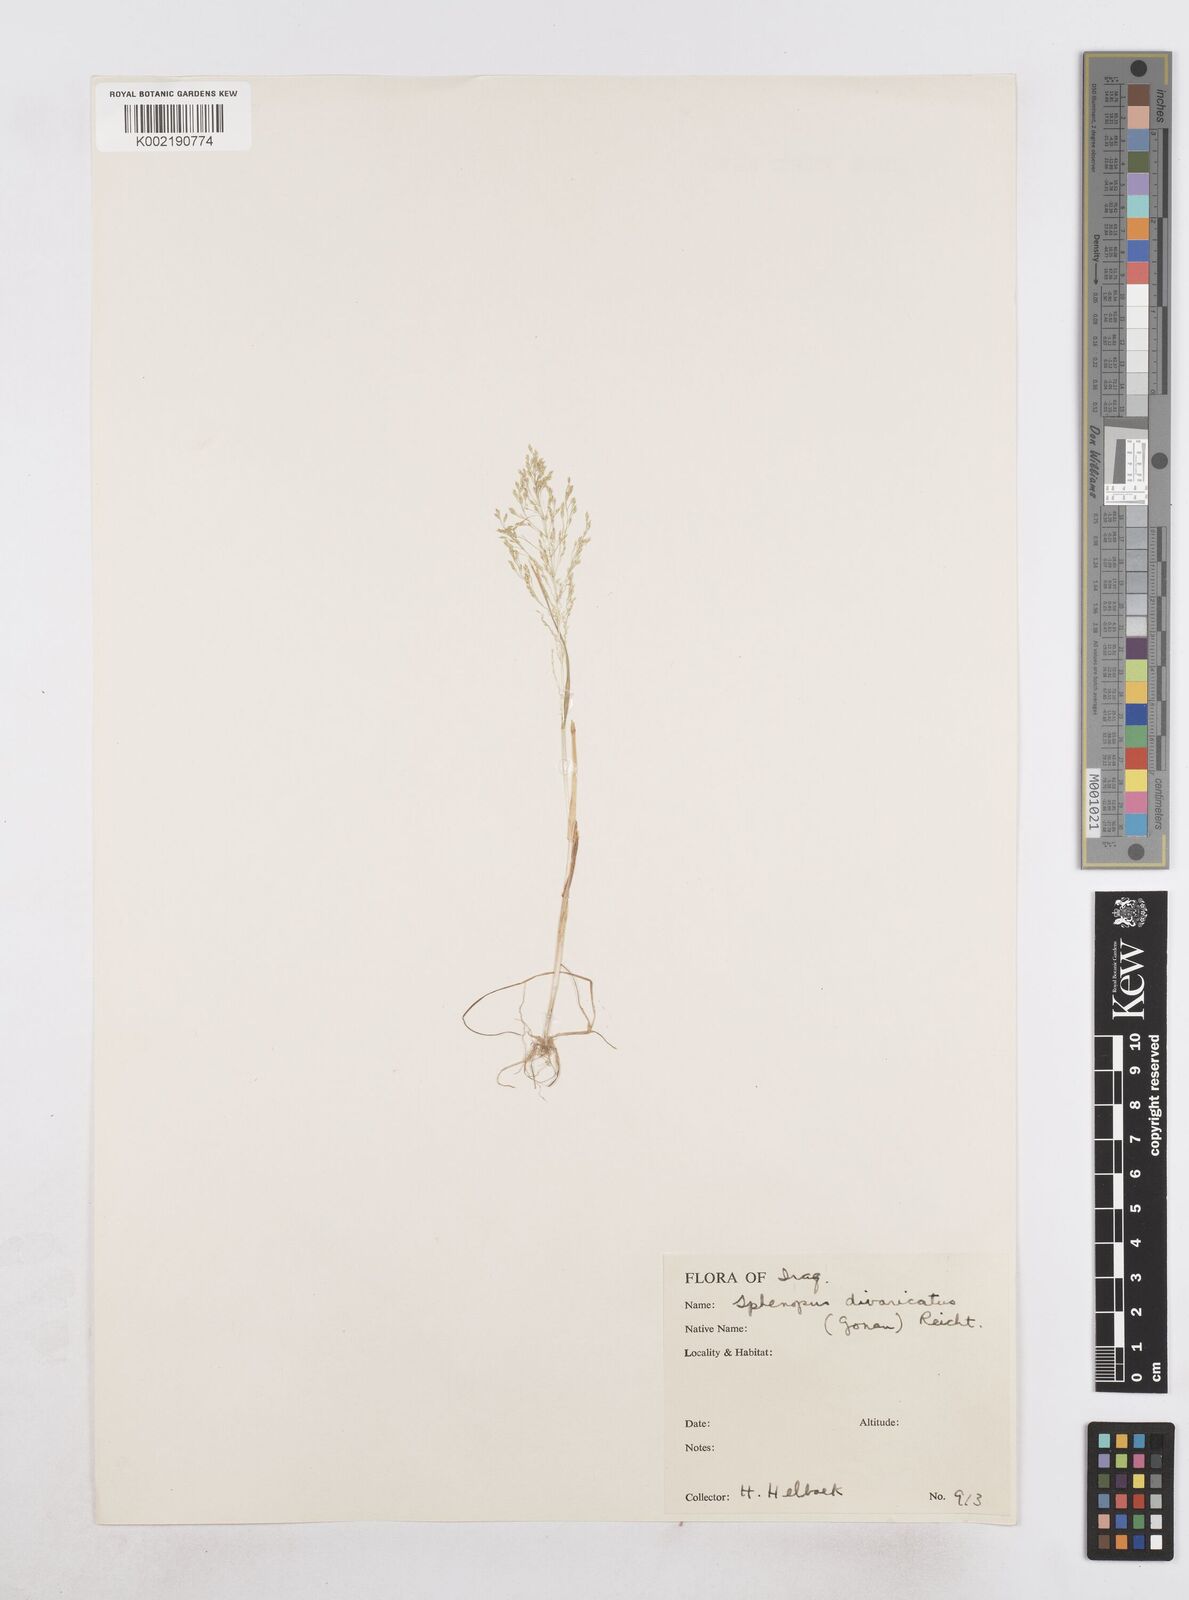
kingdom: Plantae
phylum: Tracheophyta
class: Liliopsida
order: Poales
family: Poaceae
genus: Sphenopus
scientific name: Sphenopus divaricatus
